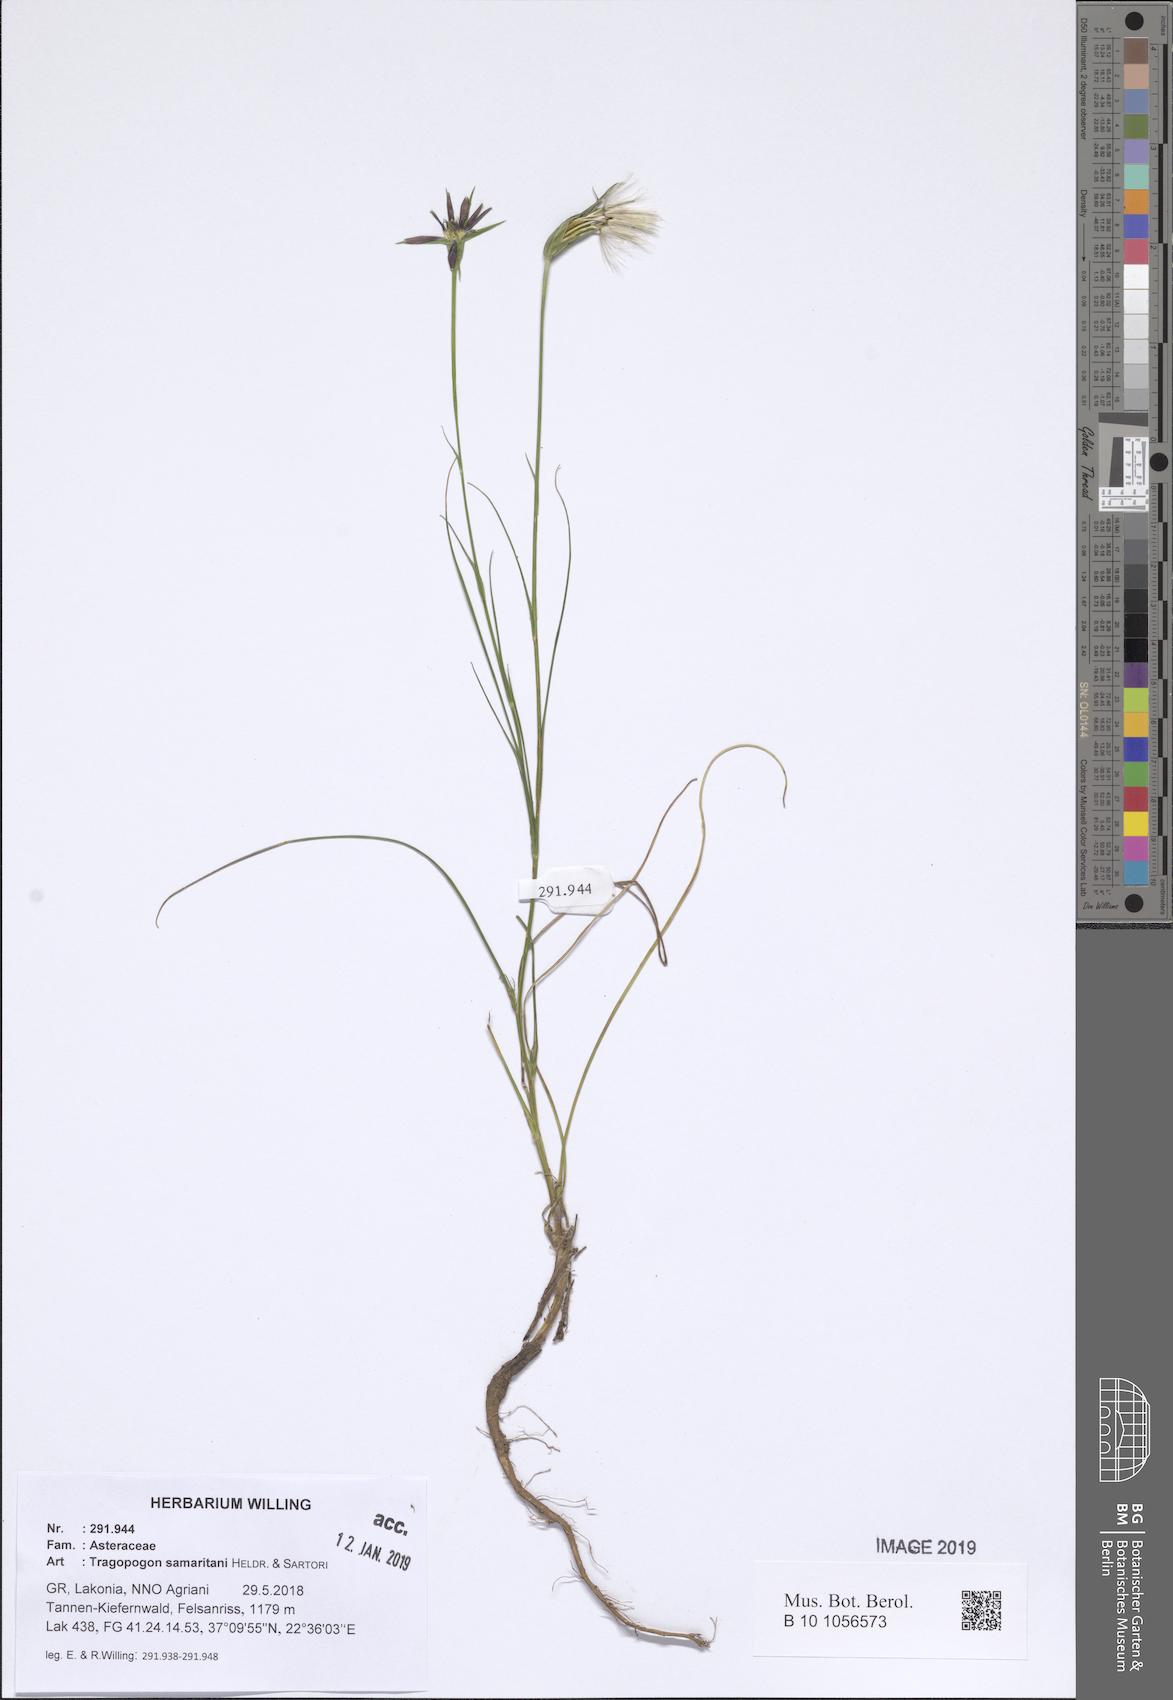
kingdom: Plantae
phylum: Tracheophyta
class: Magnoliopsida
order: Asterales
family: Asteraceae
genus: Tragopogon
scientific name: Tragopogon samaritani
